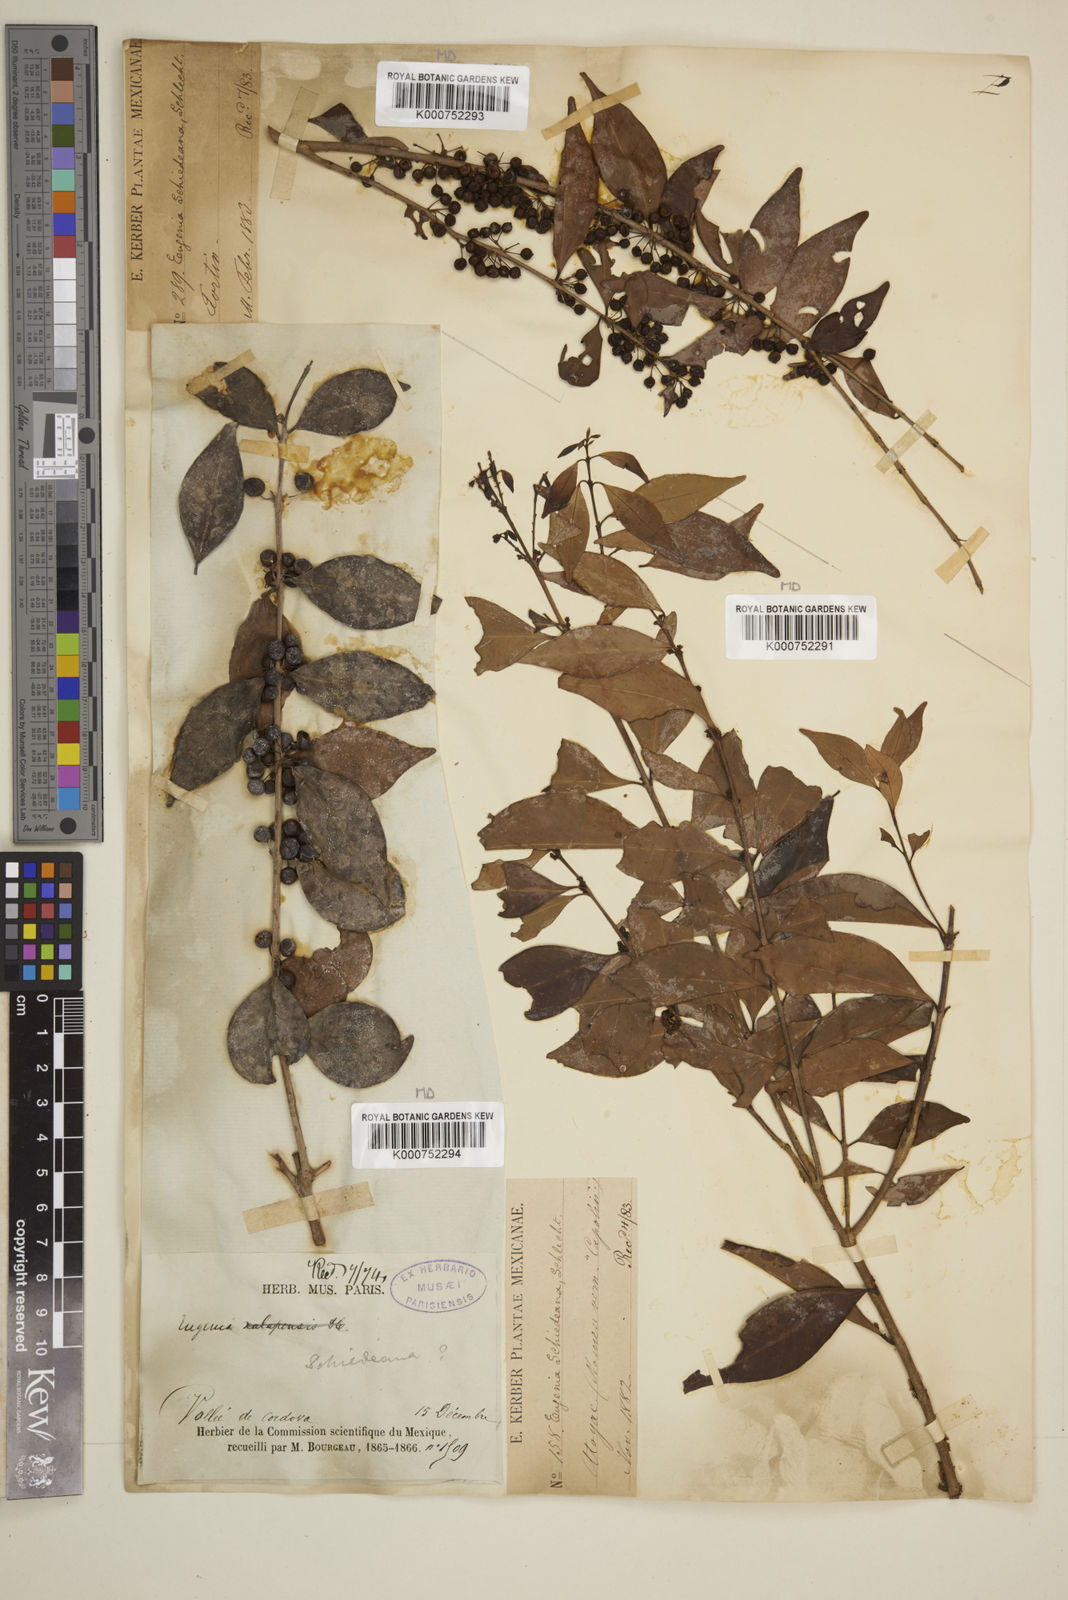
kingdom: Plantae
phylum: Tracheophyta
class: Magnoliopsida
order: Myrtales
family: Myrtaceae
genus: Eugenia
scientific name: Eugenia capuli
